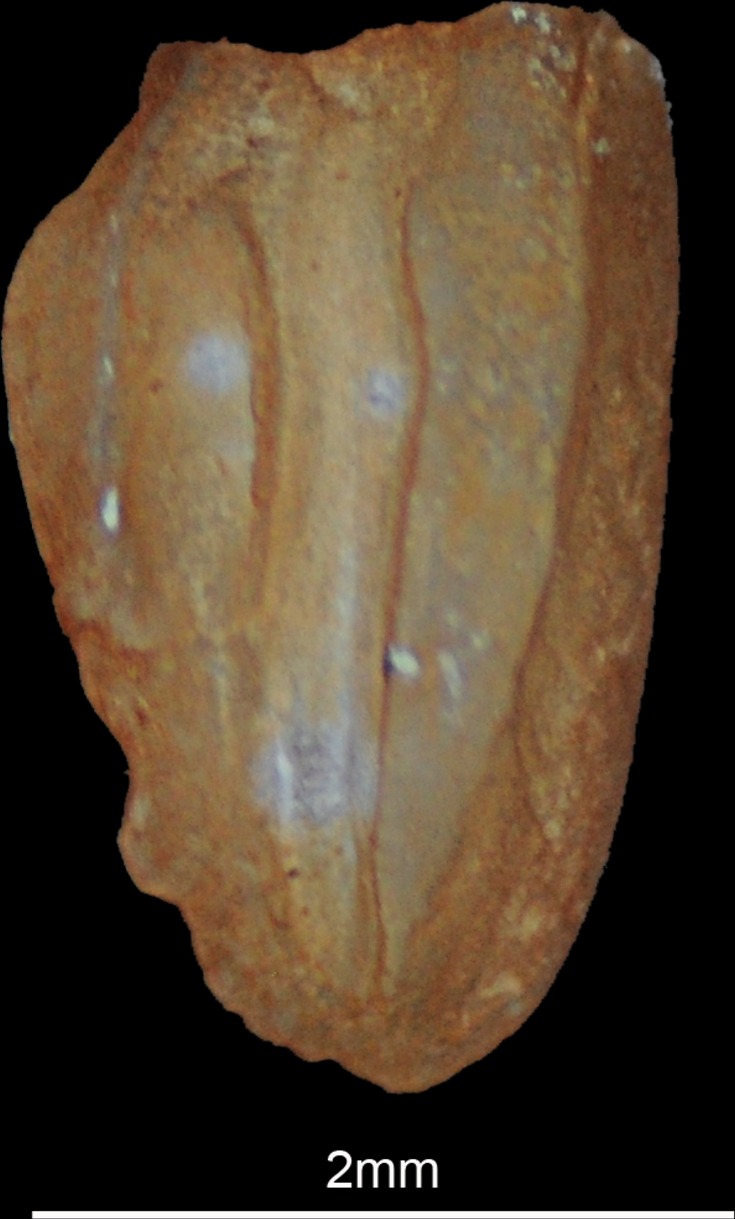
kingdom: Animalia
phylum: Chordata
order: Perciformes
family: Gerreidae
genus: Gerres
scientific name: Gerres longirostris
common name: Strongspine silver-biddy
